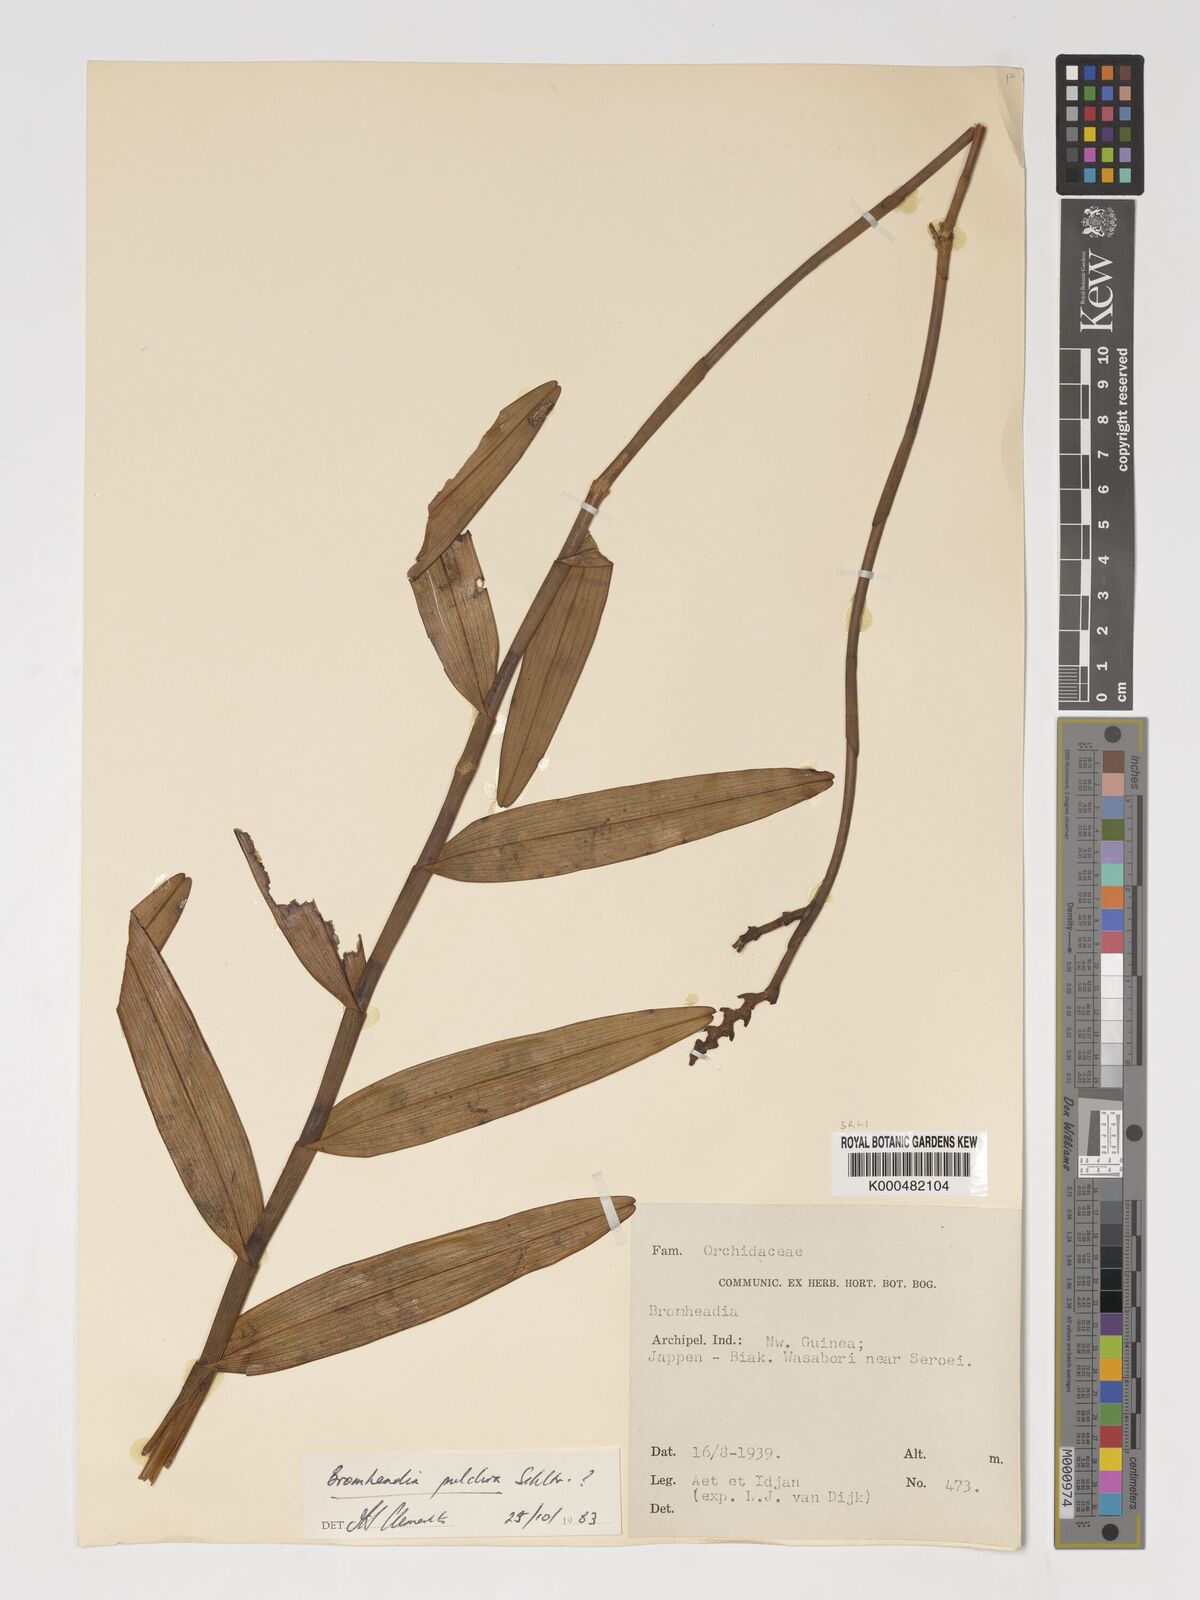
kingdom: Plantae
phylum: Tracheophyta
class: Liliopsida
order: Asparagales
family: Orchidaceae
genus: Bromheadia
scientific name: Bromheadia finlaysoniana
